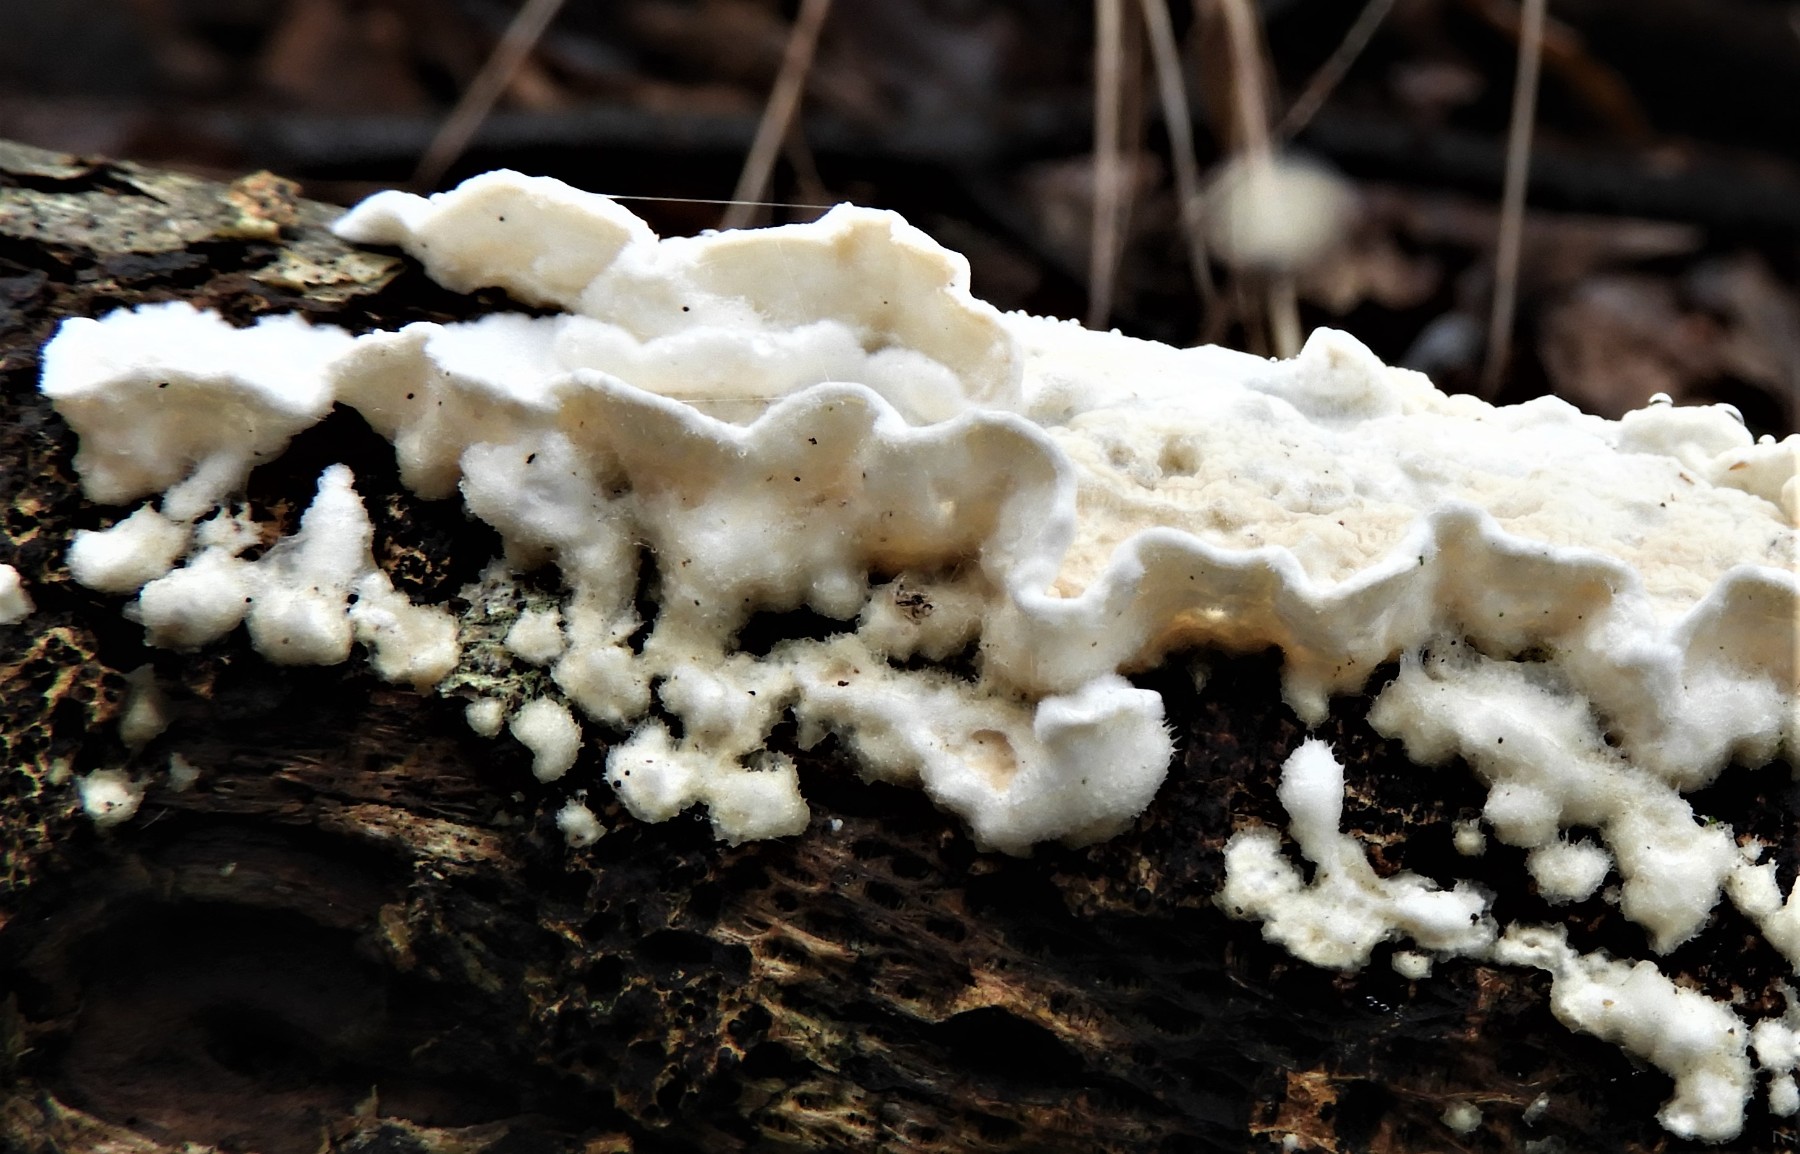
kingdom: Fungi
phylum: Basidiomycota
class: Agaricomycetes
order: Polyporales
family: Irpicaceae
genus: Byssomerulius
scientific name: Byssomerulius corium
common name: læder-åresvamp
